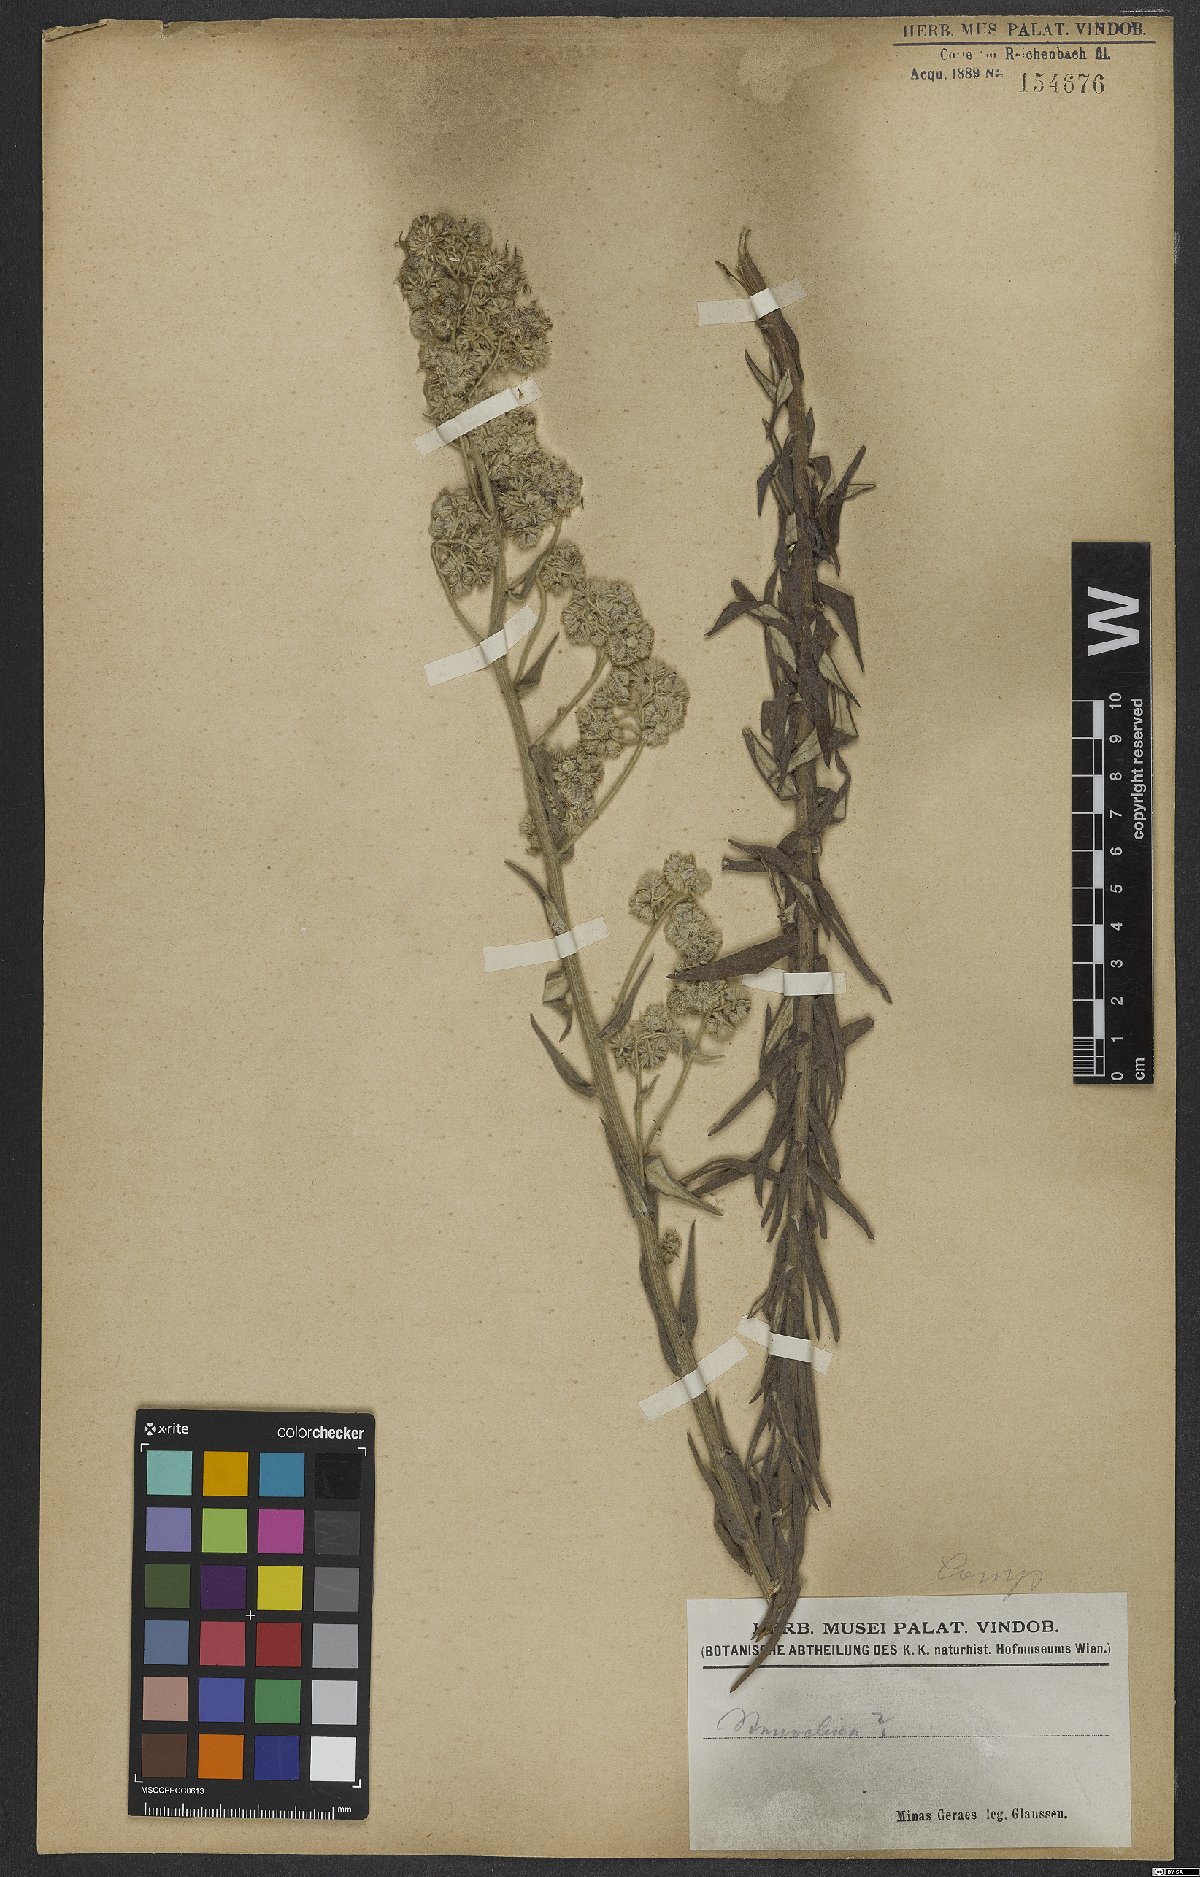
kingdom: Plantae
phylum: Tracheophyta
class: Magnoliopsida
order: Asterales
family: Asteraceae
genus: Helichrysum
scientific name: Helichrysum bracteiferum
